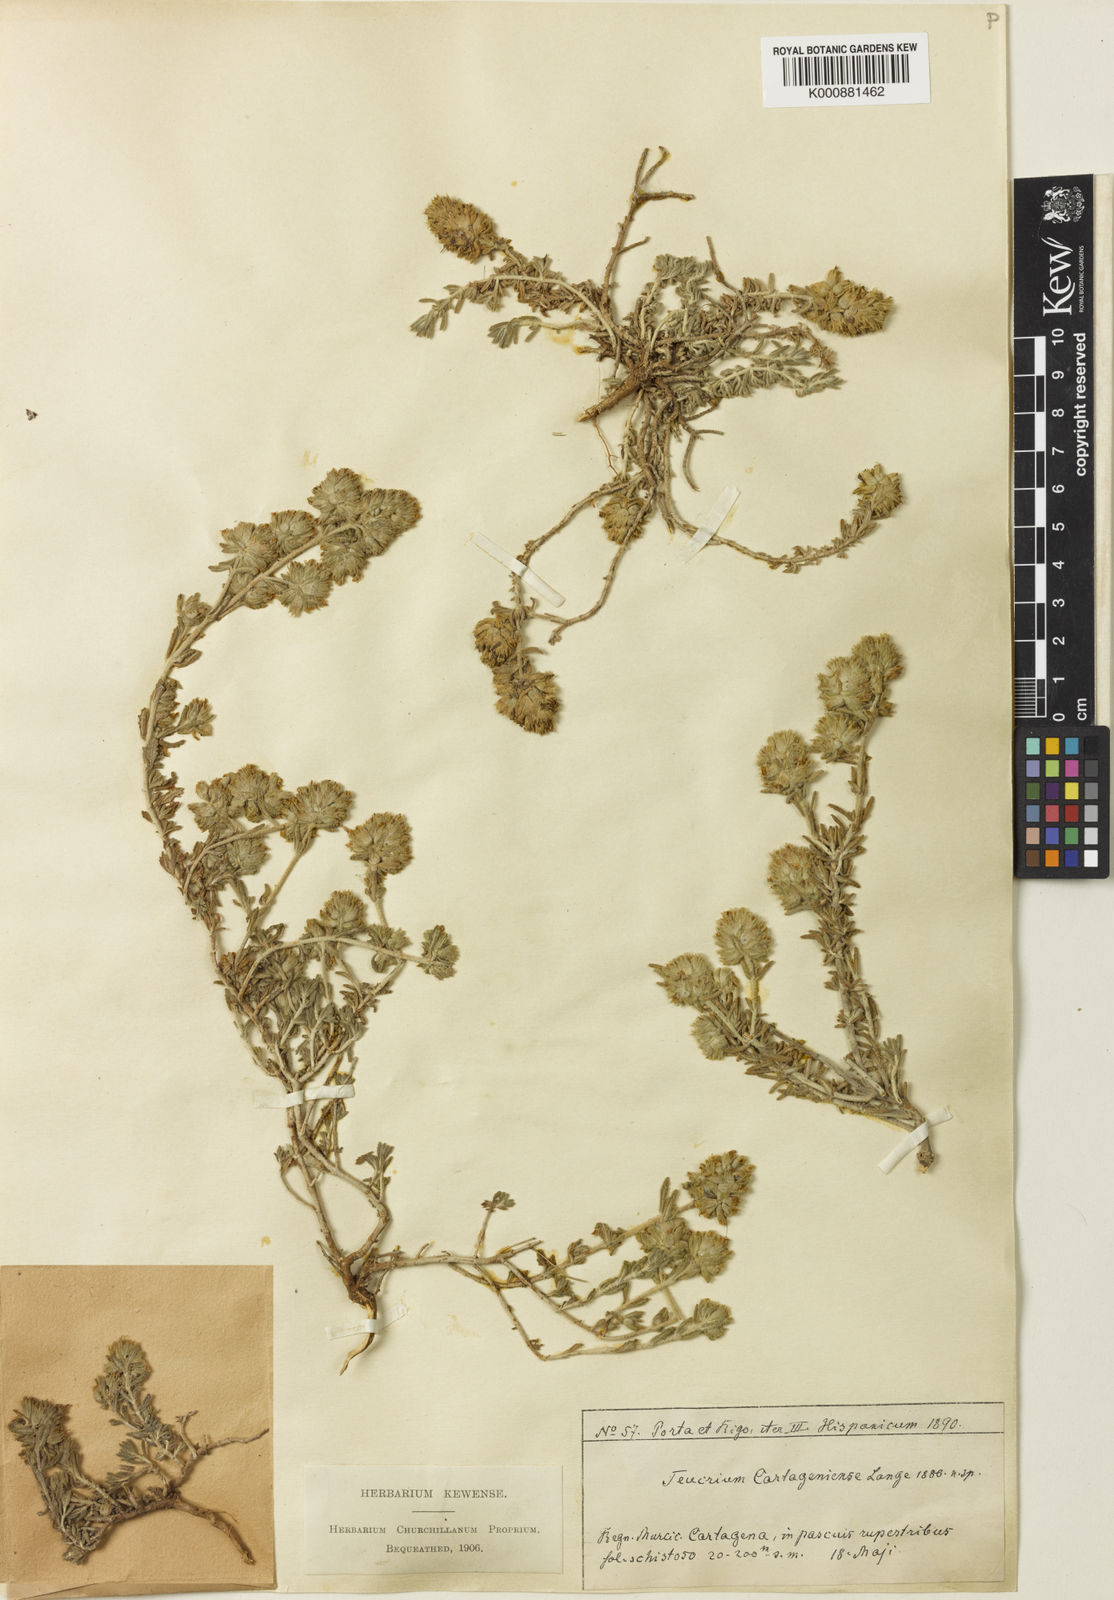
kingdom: Plantae
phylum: Tracheophyta
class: Magnoliopsida
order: Lamiales
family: Lamiaceae
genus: Teucrium
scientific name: Teucrium carthaginense
